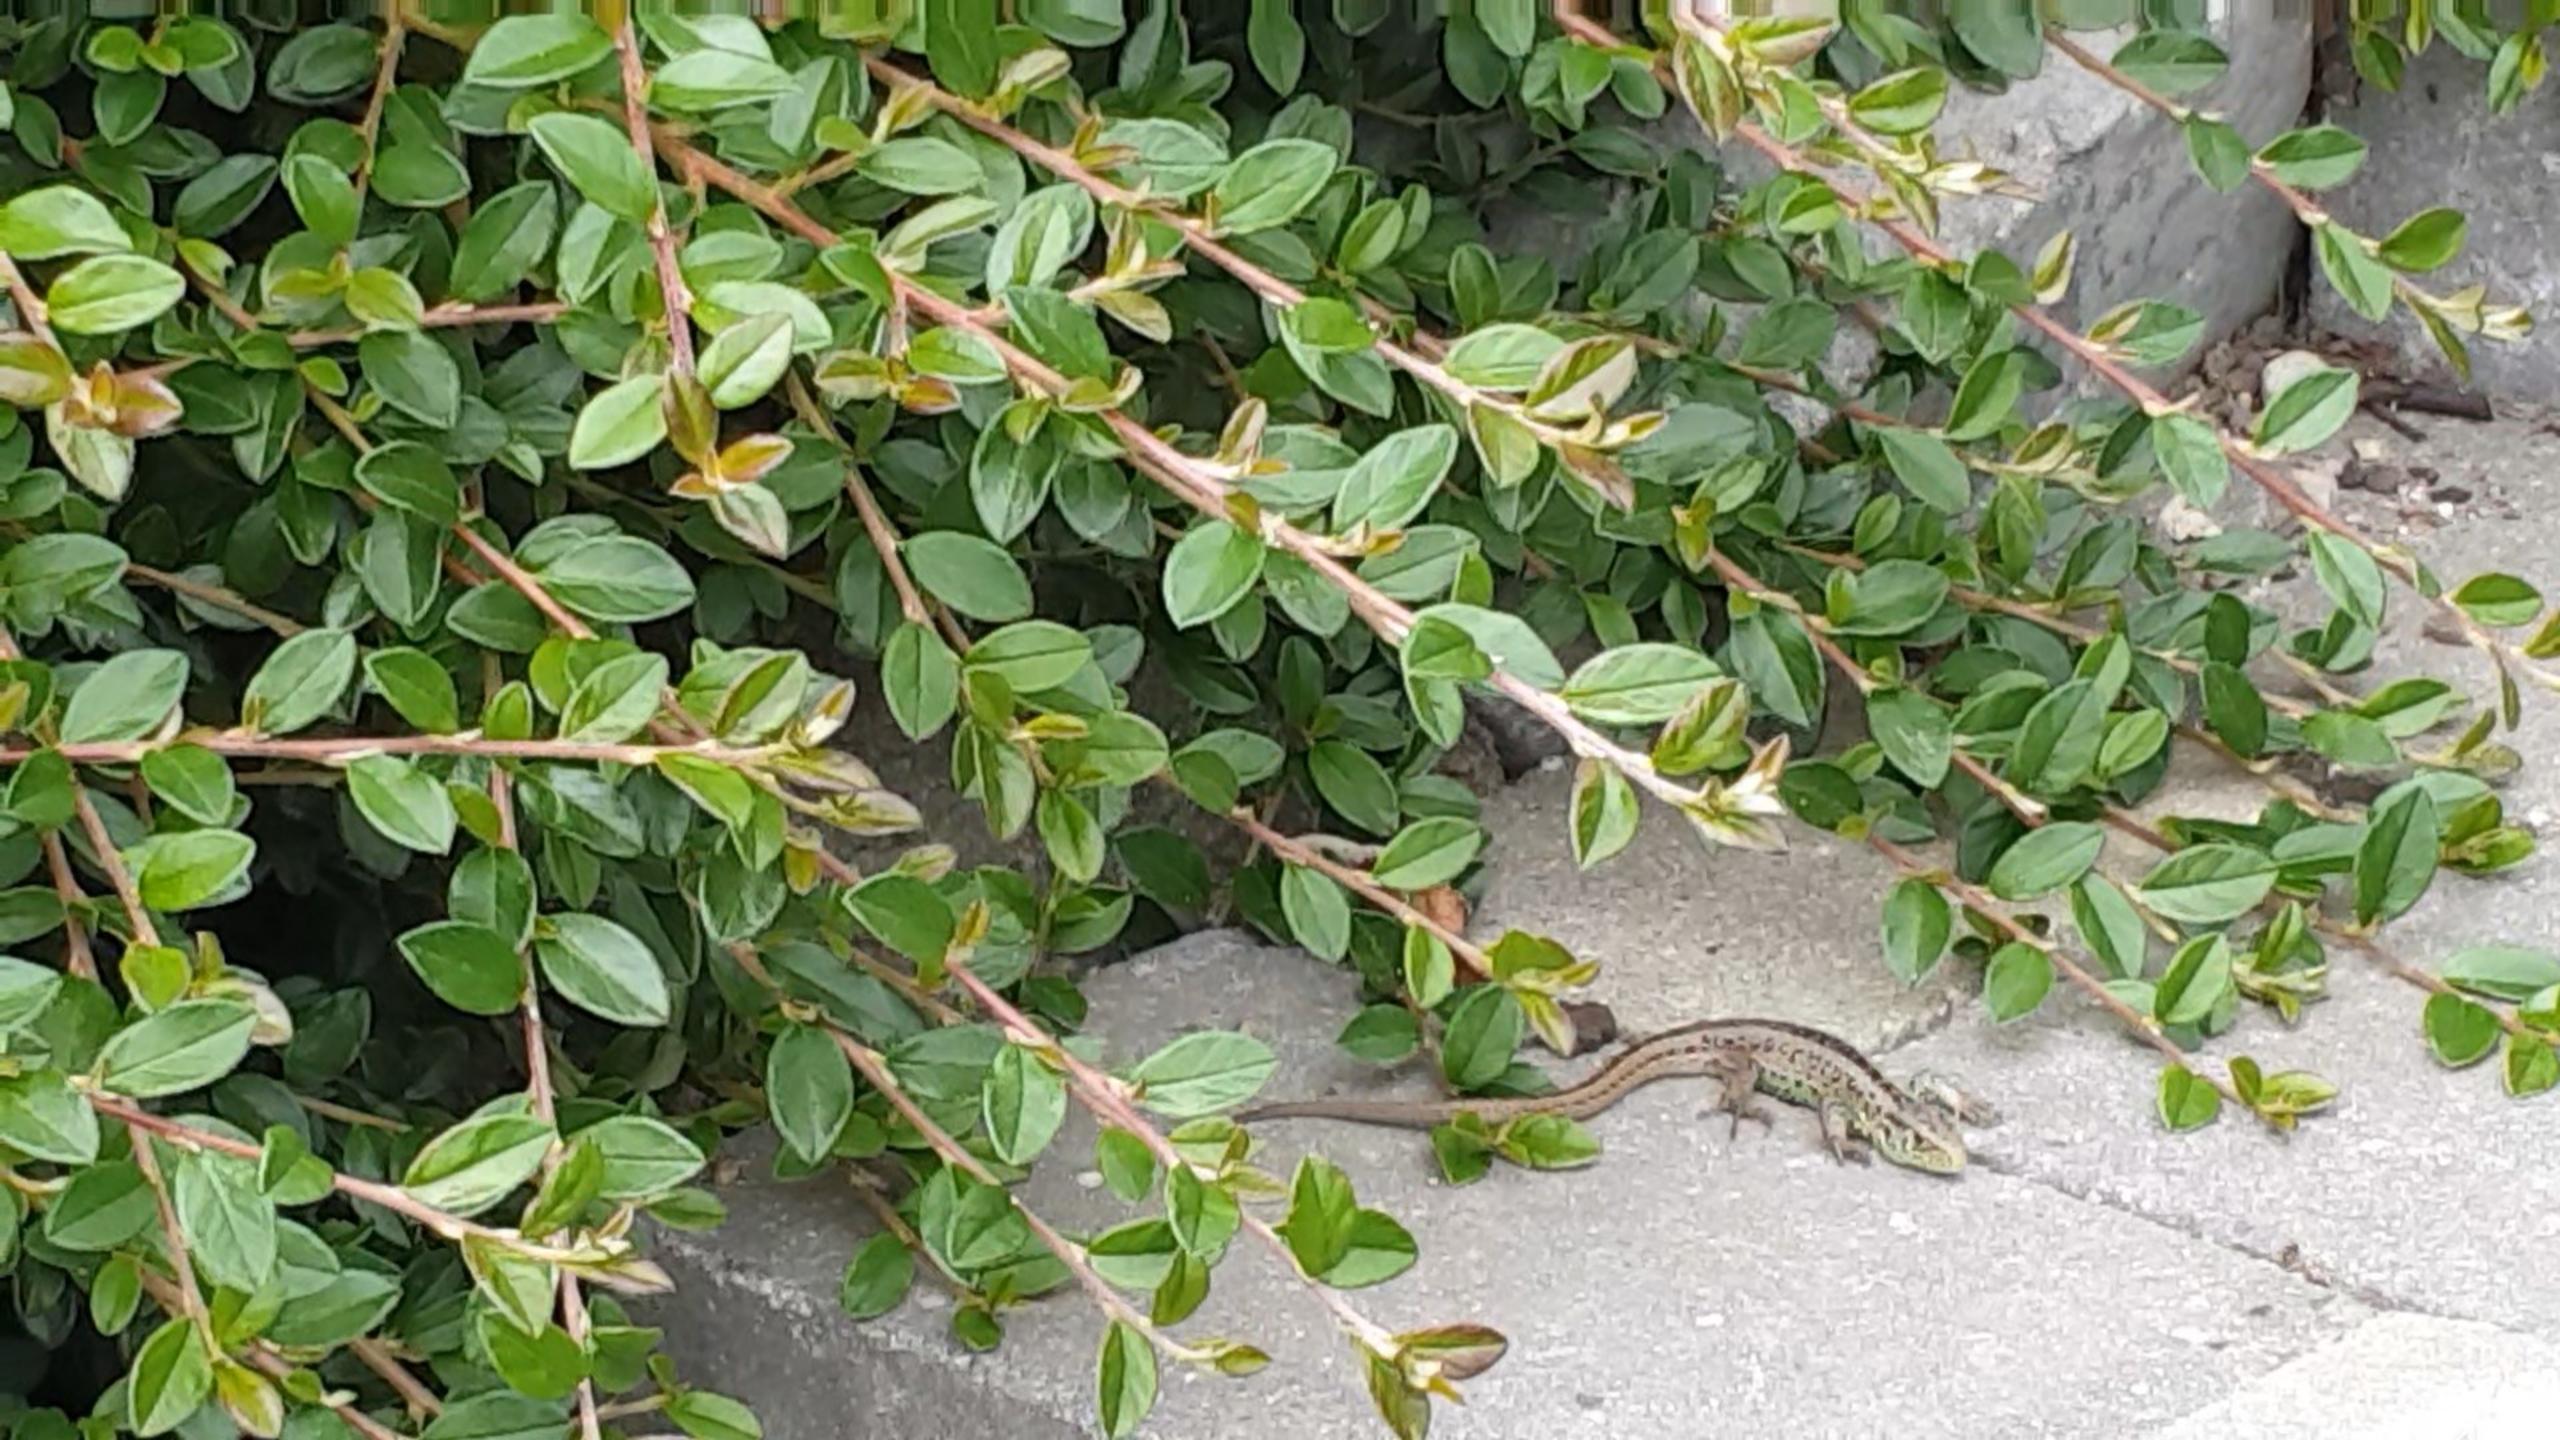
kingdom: Animalia
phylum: Chordata
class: Squamata
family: Lacertidae
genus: Lacerta
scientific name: Lacerta agilis
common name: Markfirben
